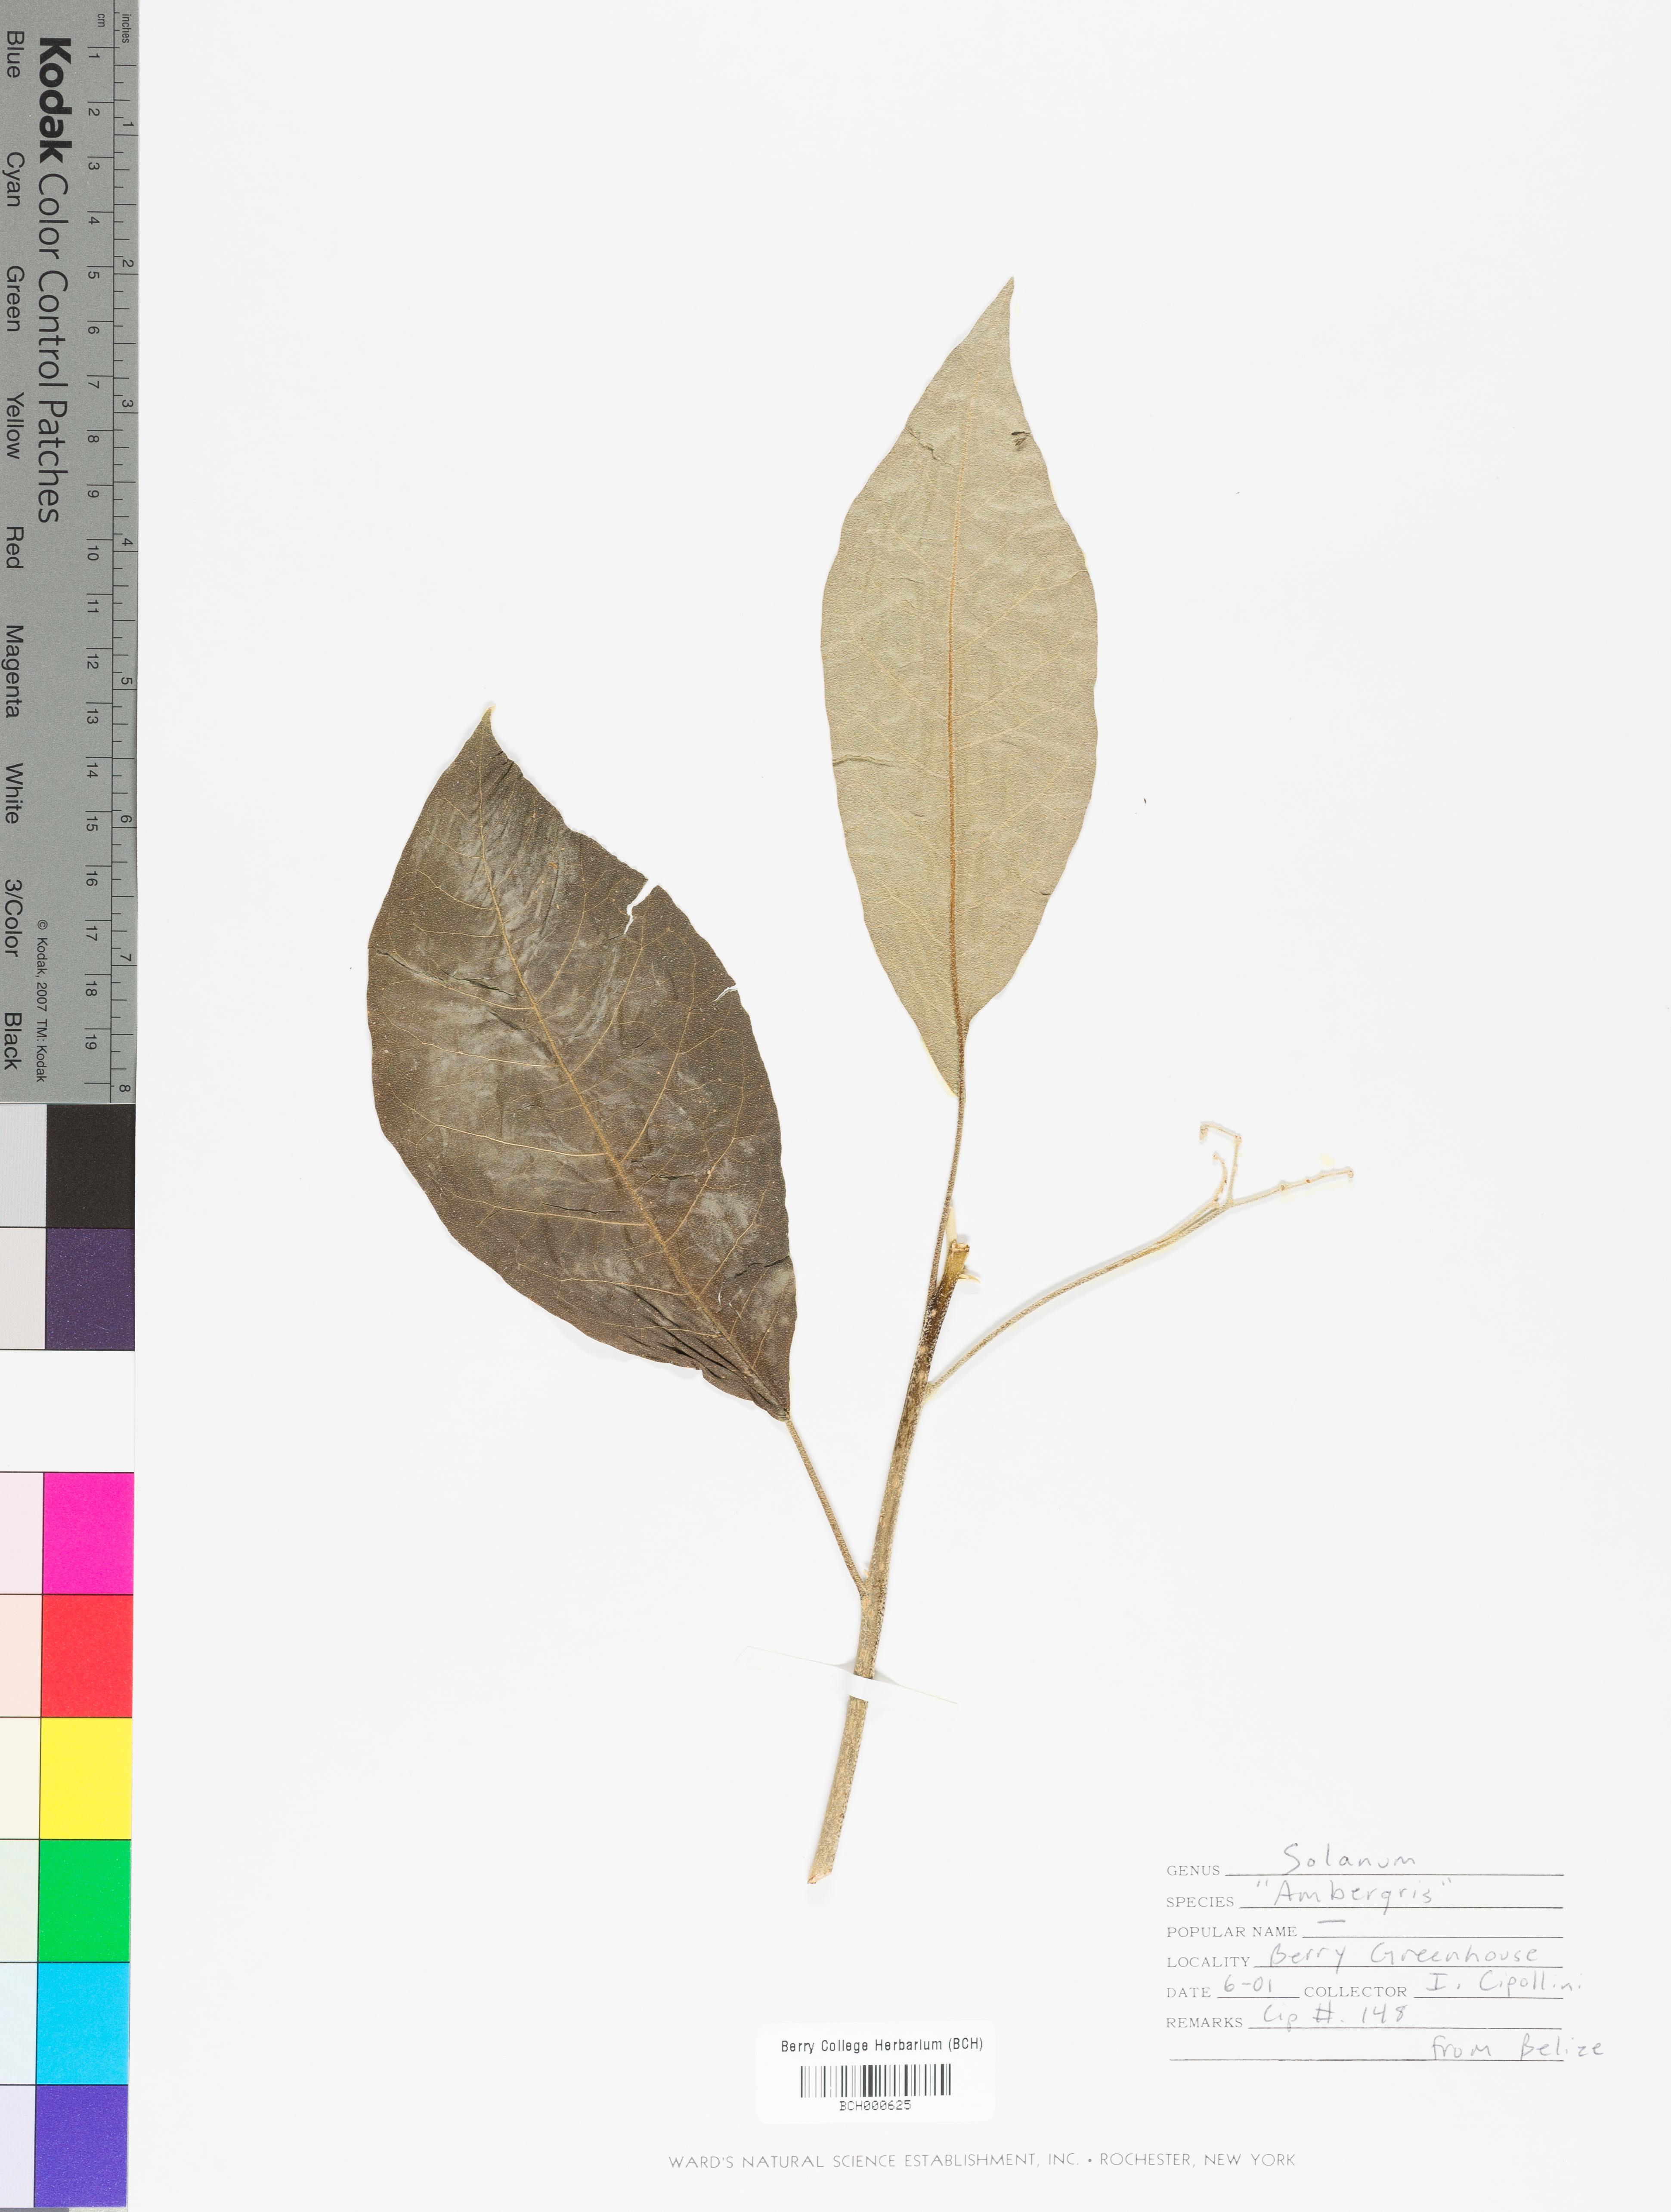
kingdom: Plantae
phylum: Tracheophyta
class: Magnoliopsida
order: Solanales
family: Solanaceae
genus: Solanum
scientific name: Solanum
